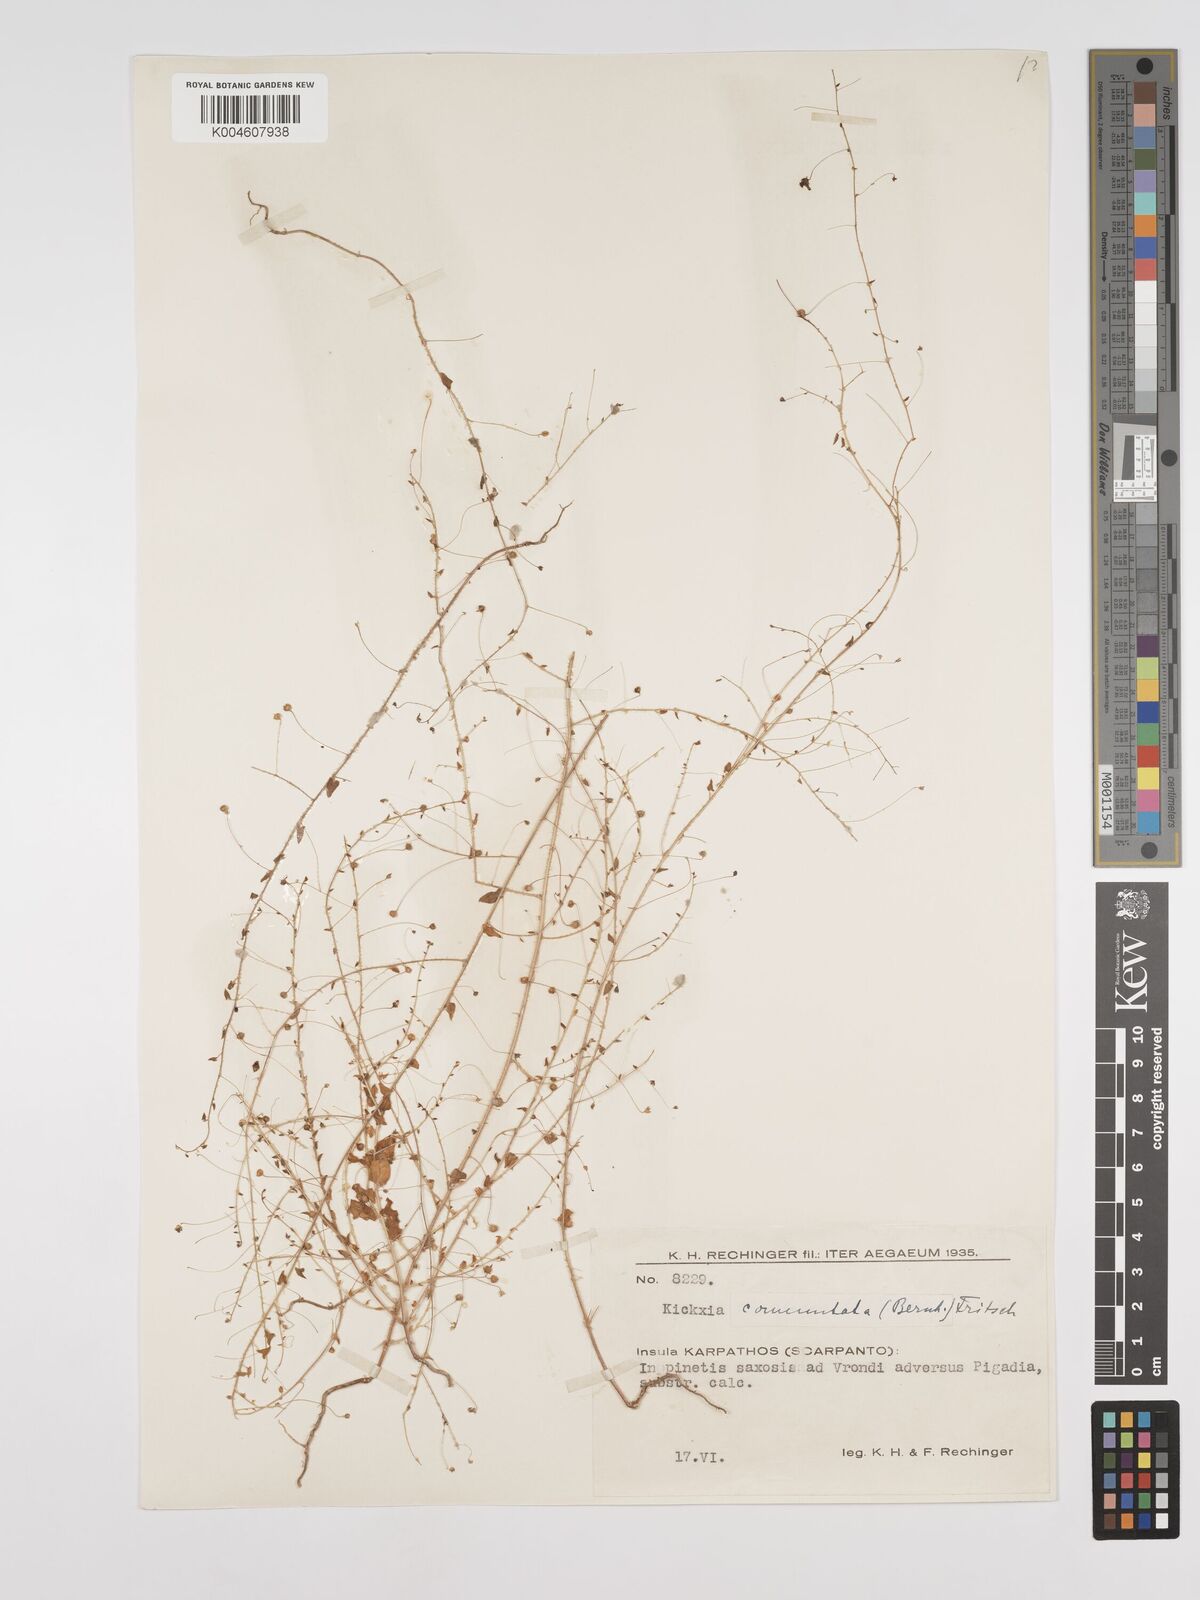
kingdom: Plantae
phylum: Tracheophyta
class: Magnoliopsida
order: Lamiales
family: Plantaginaceae
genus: Kickxia
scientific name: Kickxia commutata
